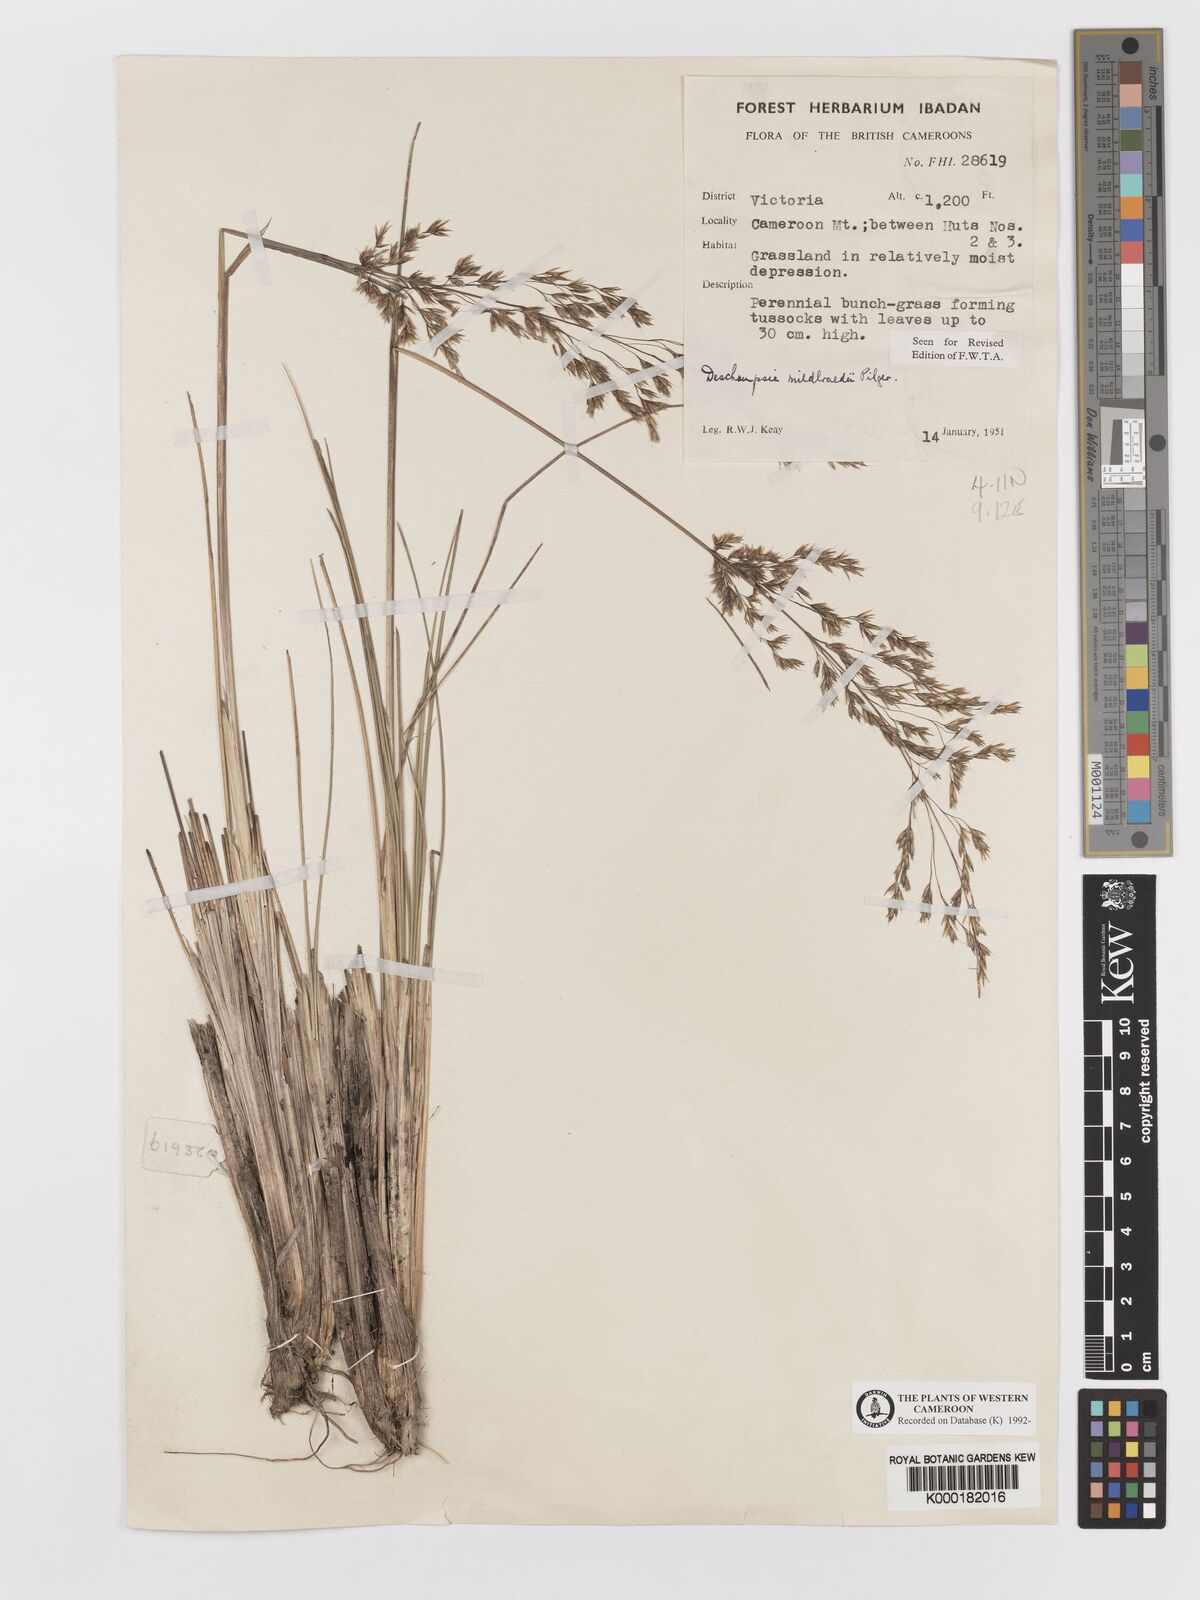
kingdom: Plantae
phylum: Tracheophyta
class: Liliopsida
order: Poales
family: Poaceae
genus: Deschampsia
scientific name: Deschampsia mildbraedii
